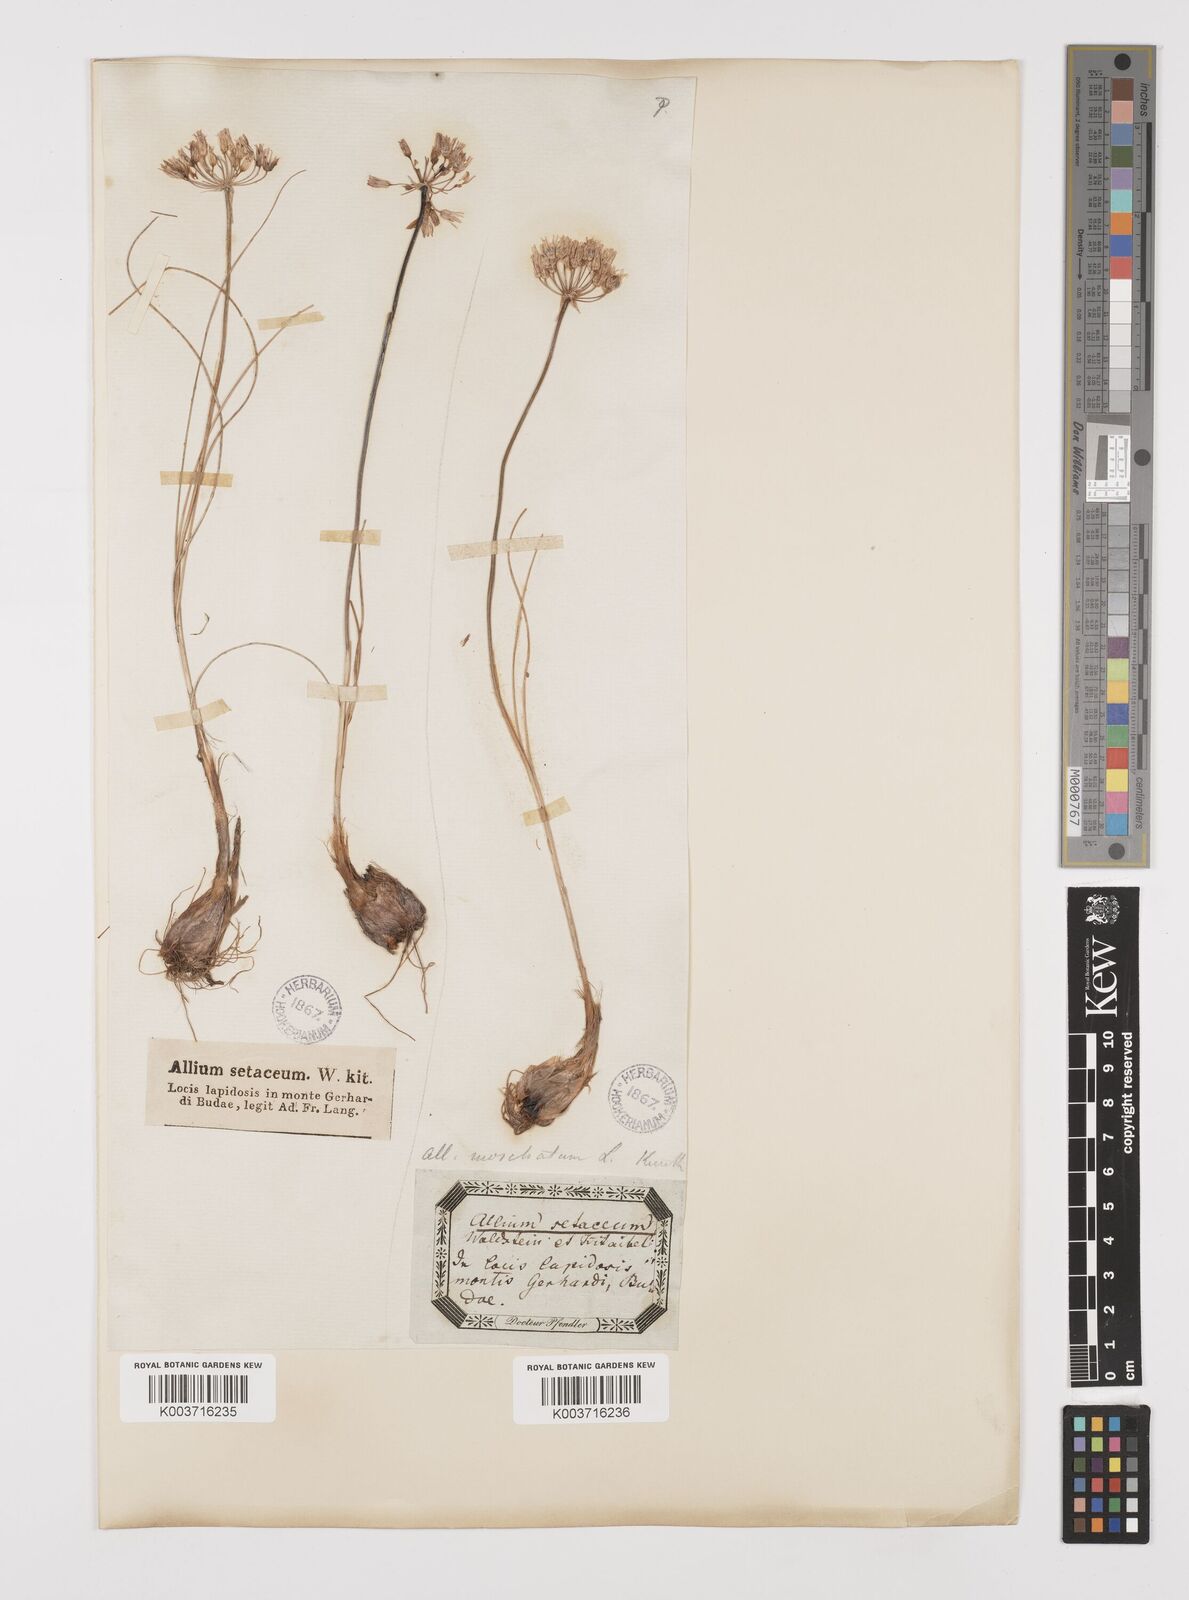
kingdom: Plantae
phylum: Tracheophyta
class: Liliopsida
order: Asparagales
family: Amaryllidaceae
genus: Allium
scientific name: Allium moschatum
